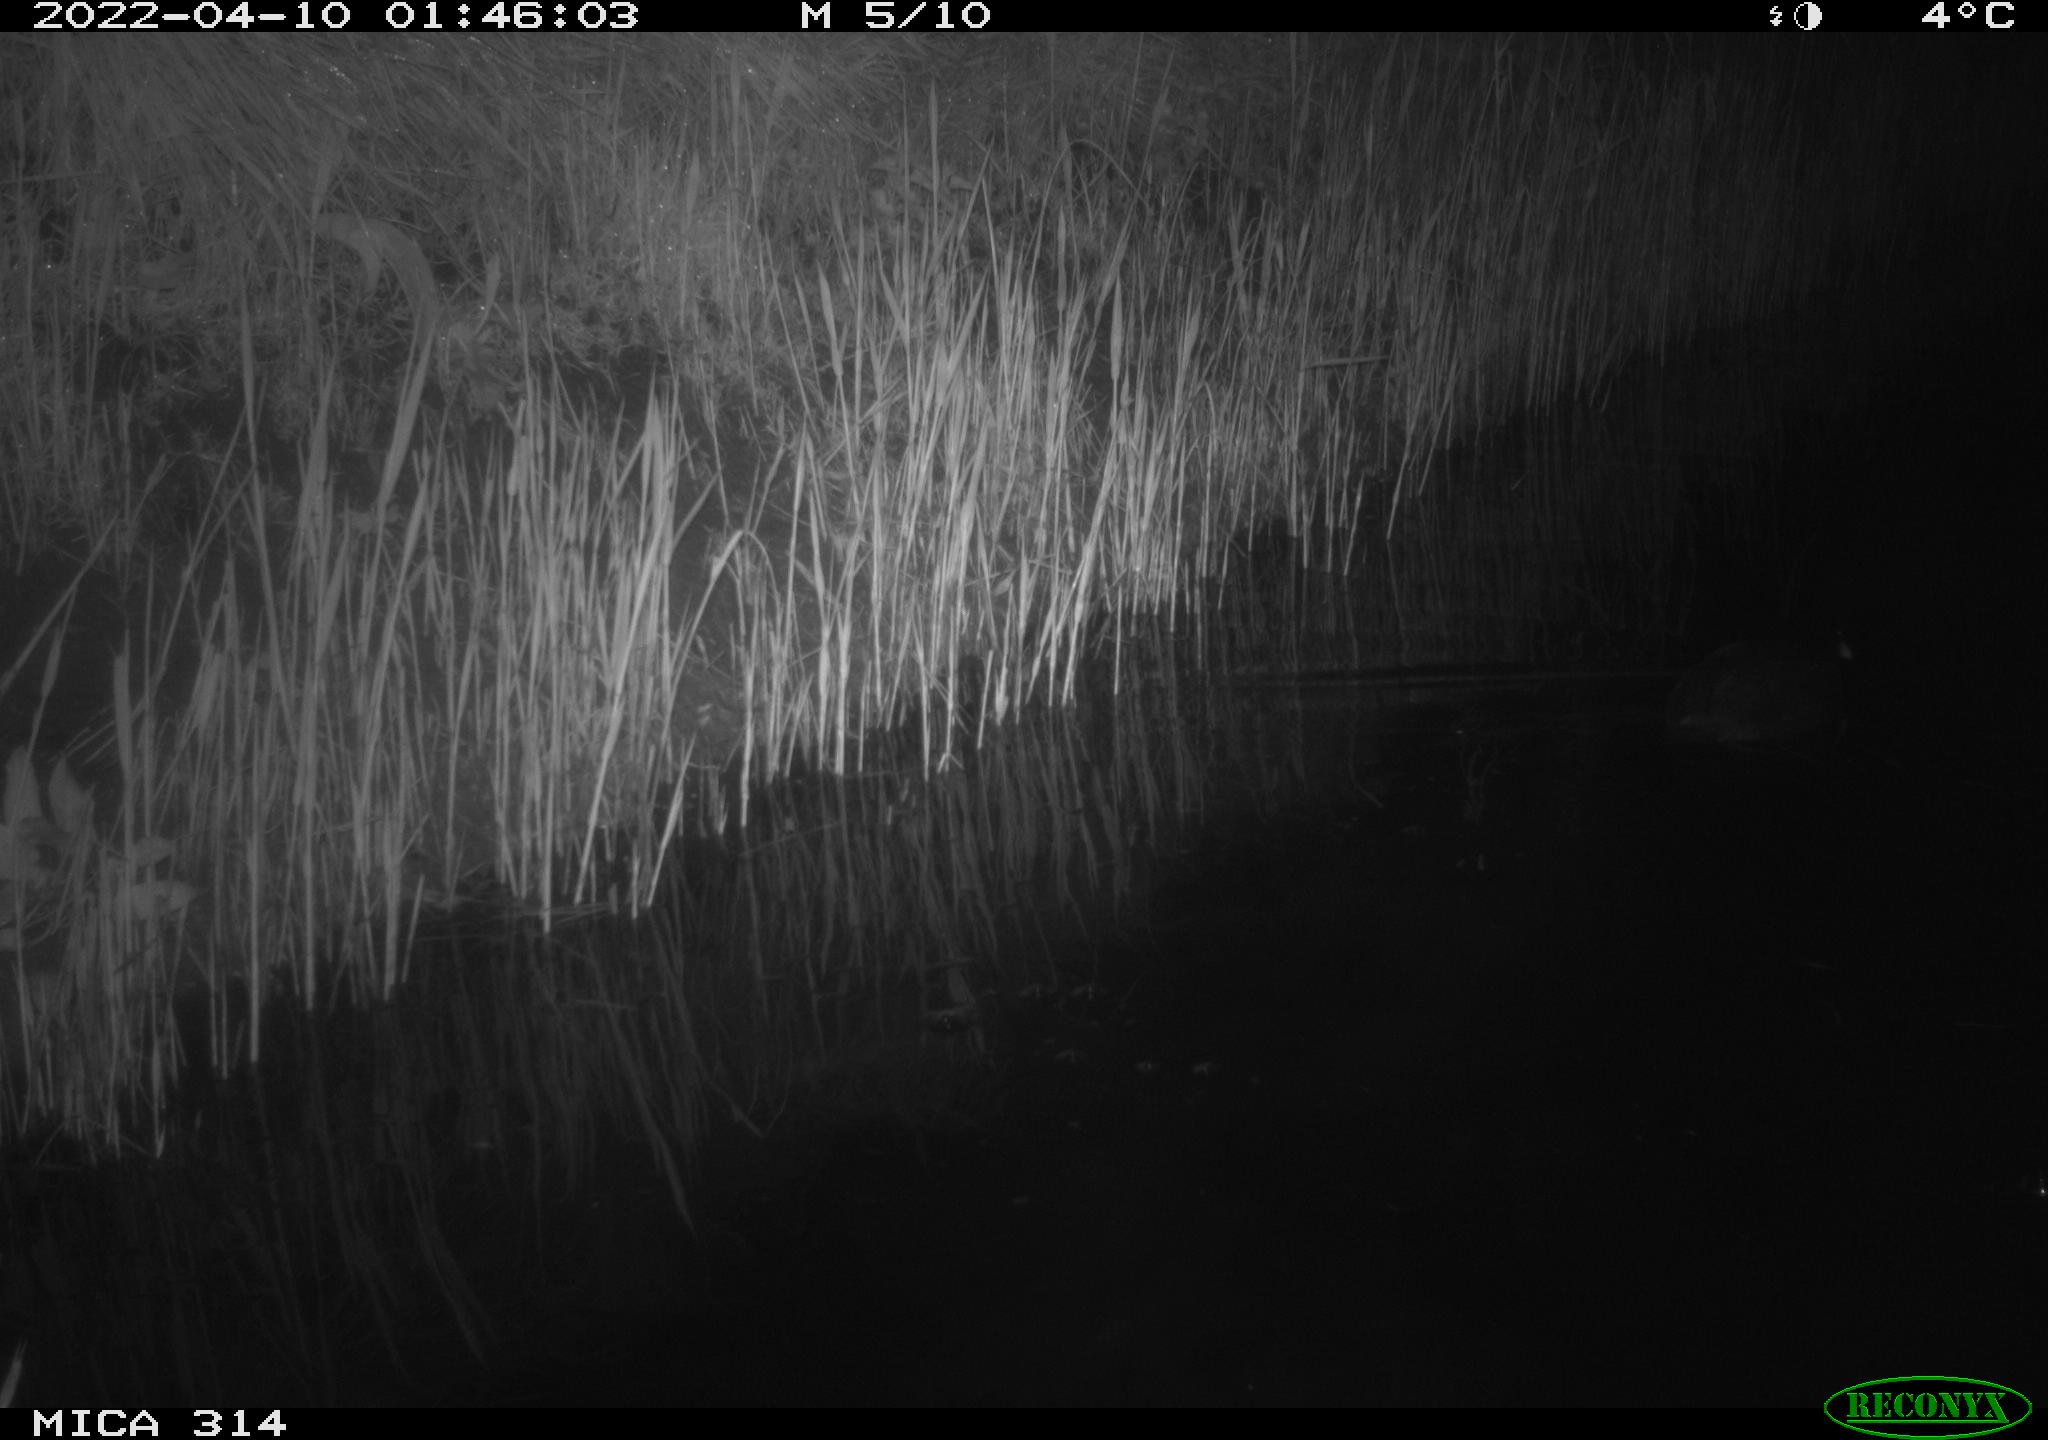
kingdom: Animalia
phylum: Chordata
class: Aves
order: Gruiformes
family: Rallidae
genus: Fulica
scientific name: Fulica atra
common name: Eurasian coot
